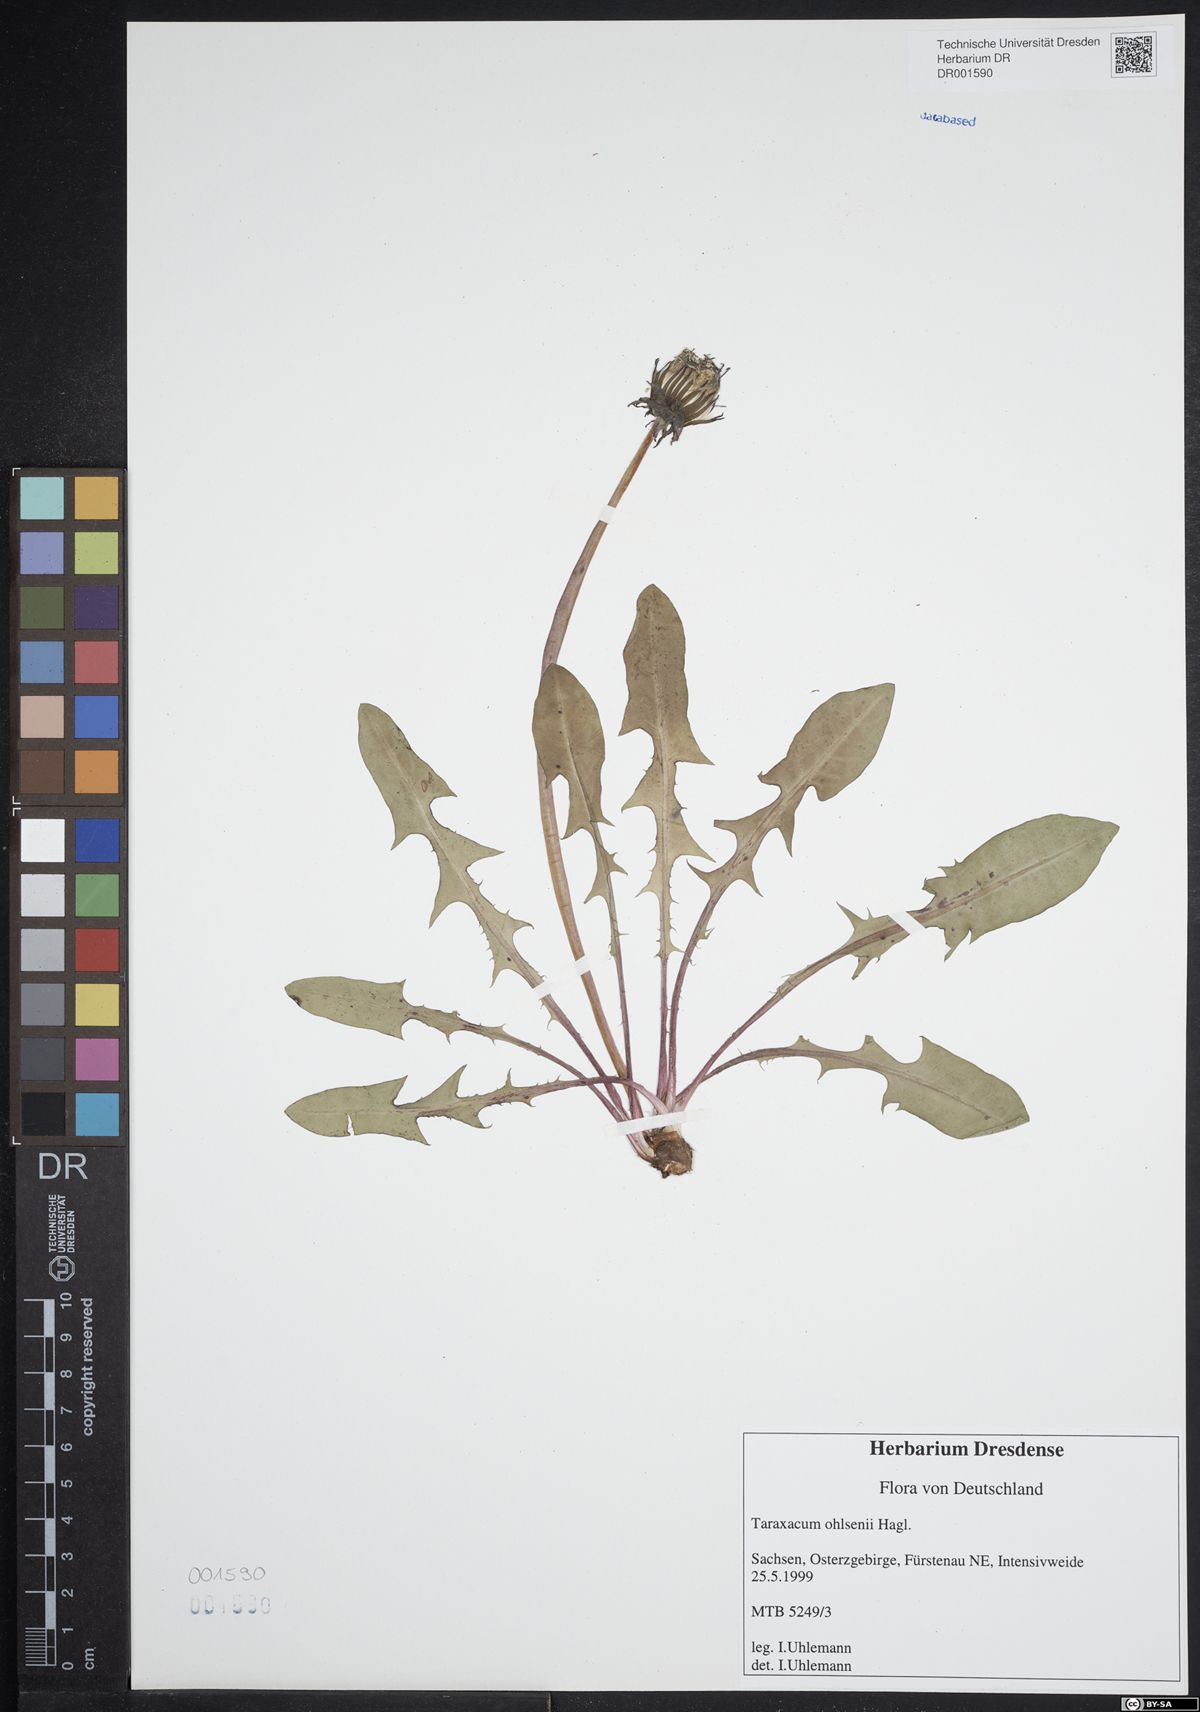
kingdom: Plantae
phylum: Tracheophyta
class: Magnoliopsida
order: Asterales
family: Asteraceae
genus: Taraxacum
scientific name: Taraxacum ohlsenii
